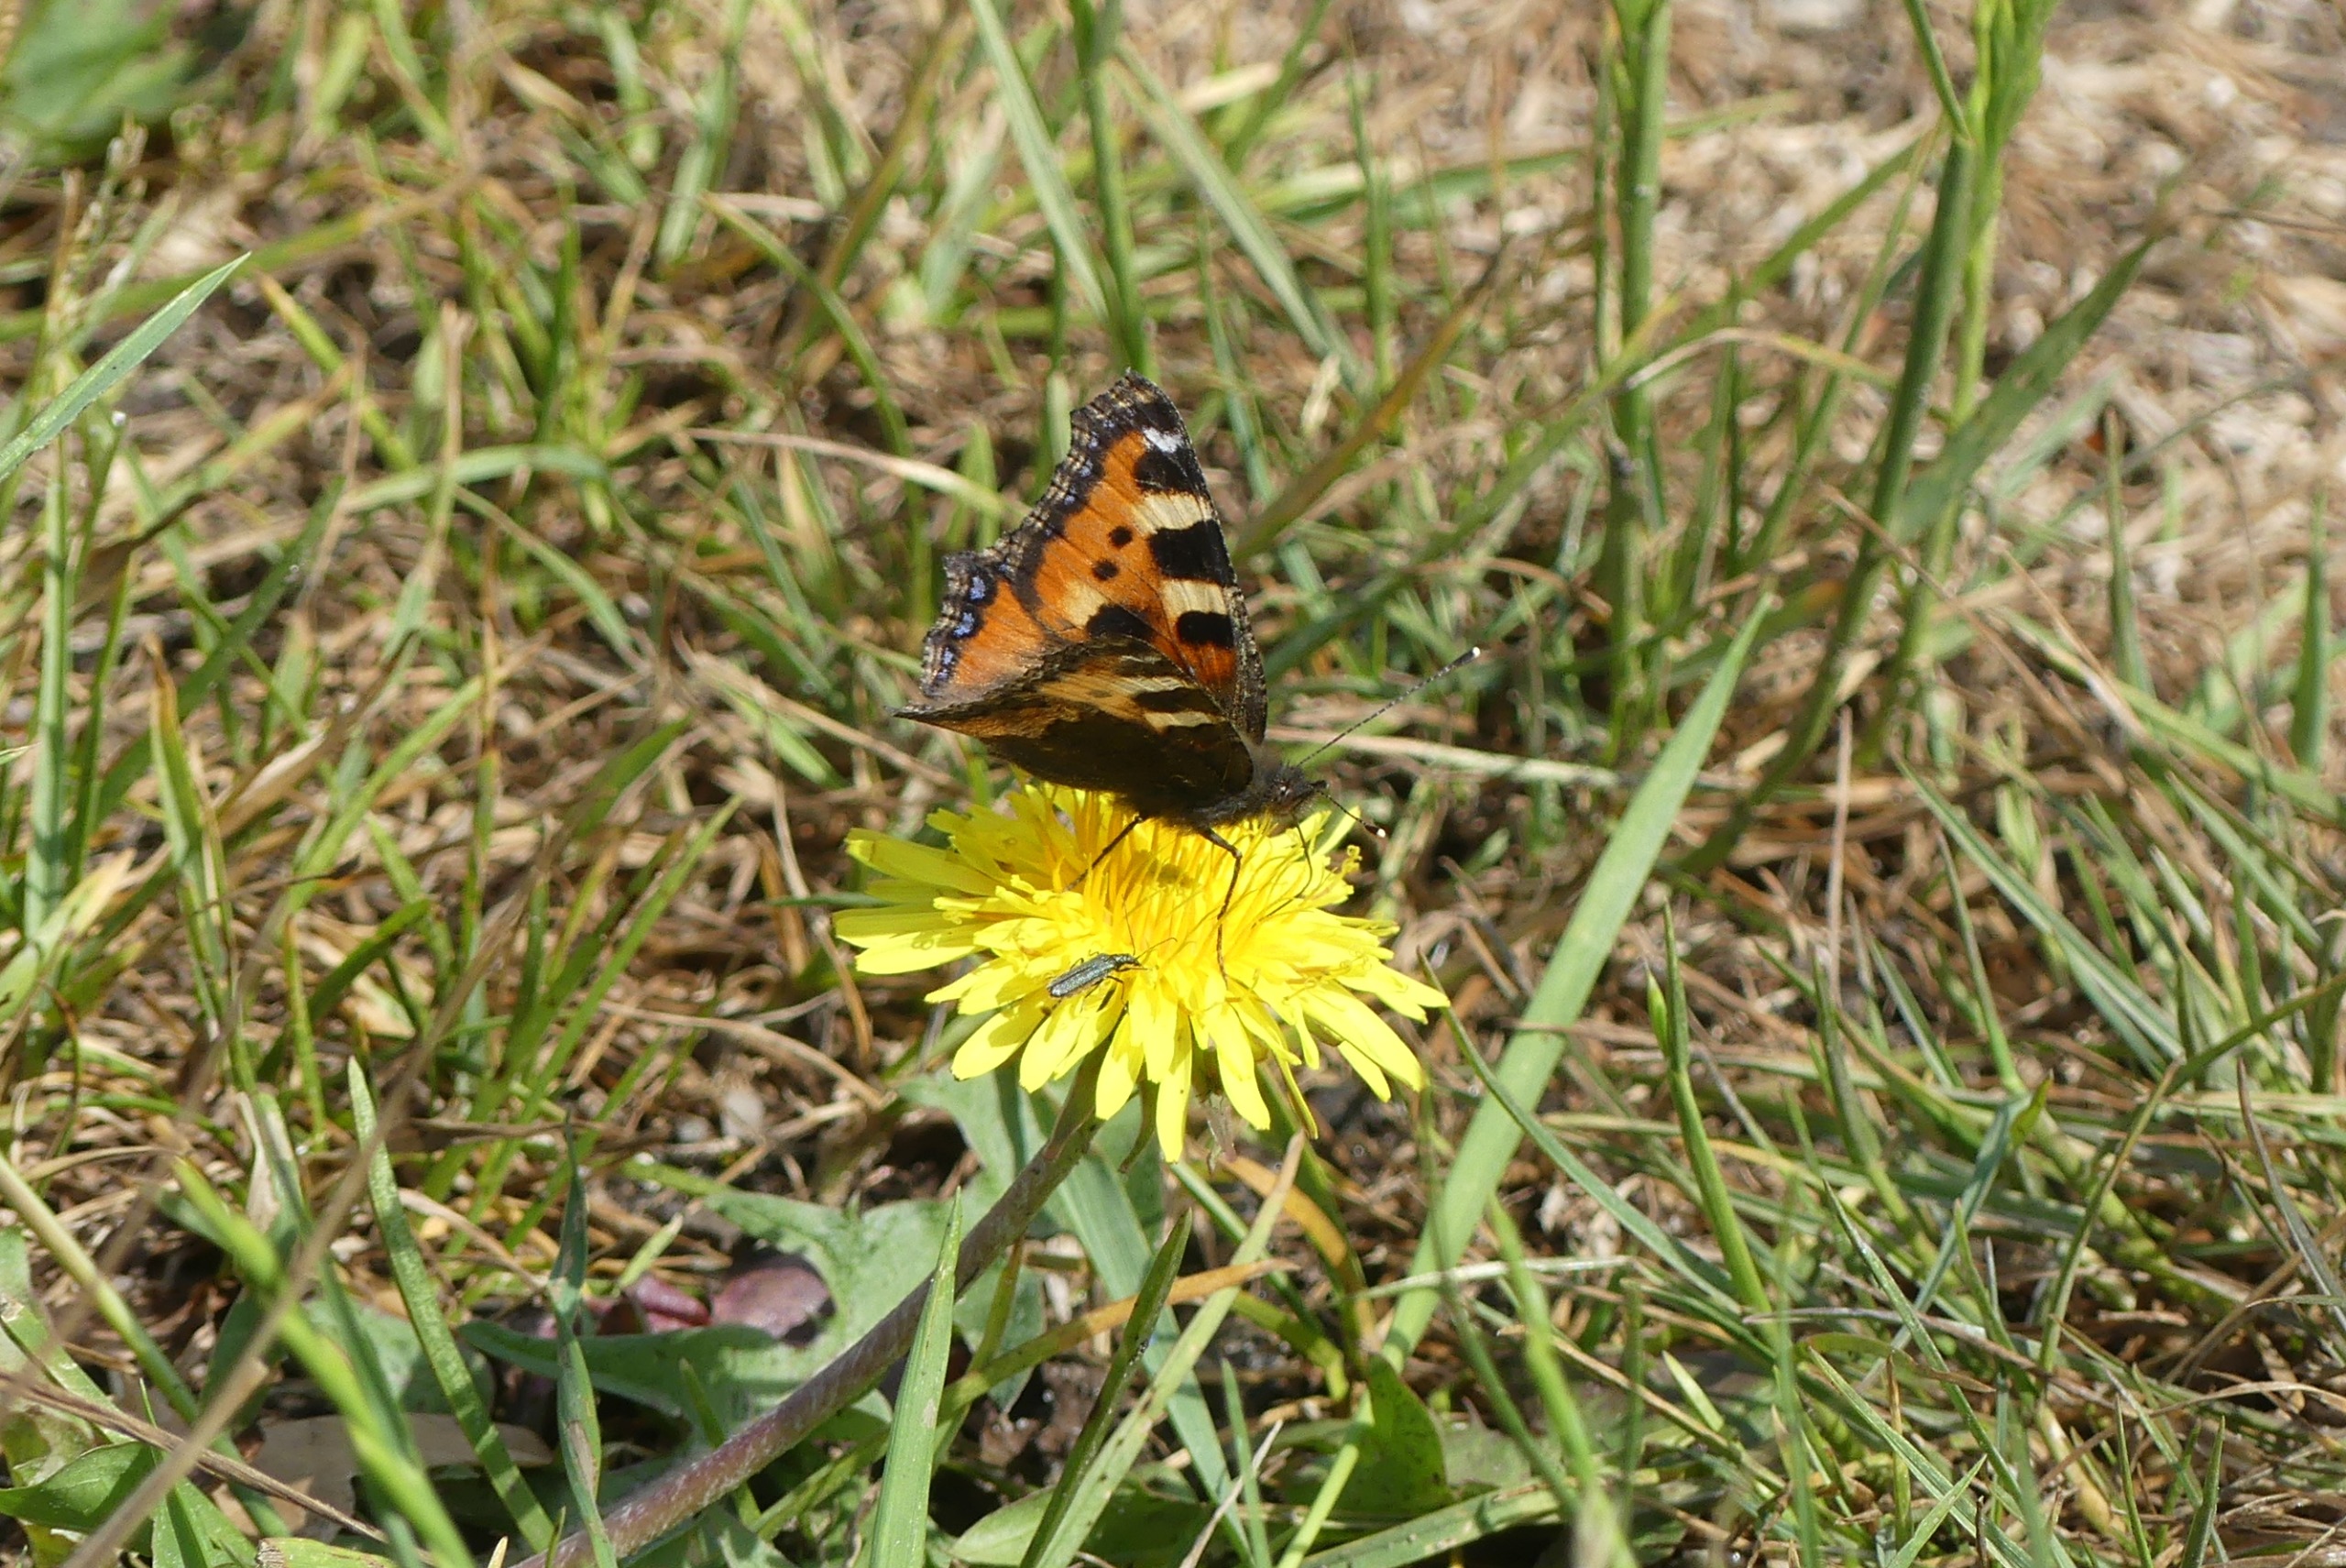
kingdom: Animalia
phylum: Arthropoda
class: Insecta
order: Lepidoptera
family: Nymphalidae
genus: Aglais
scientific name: Aglais urticae
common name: Nældens takvinge
